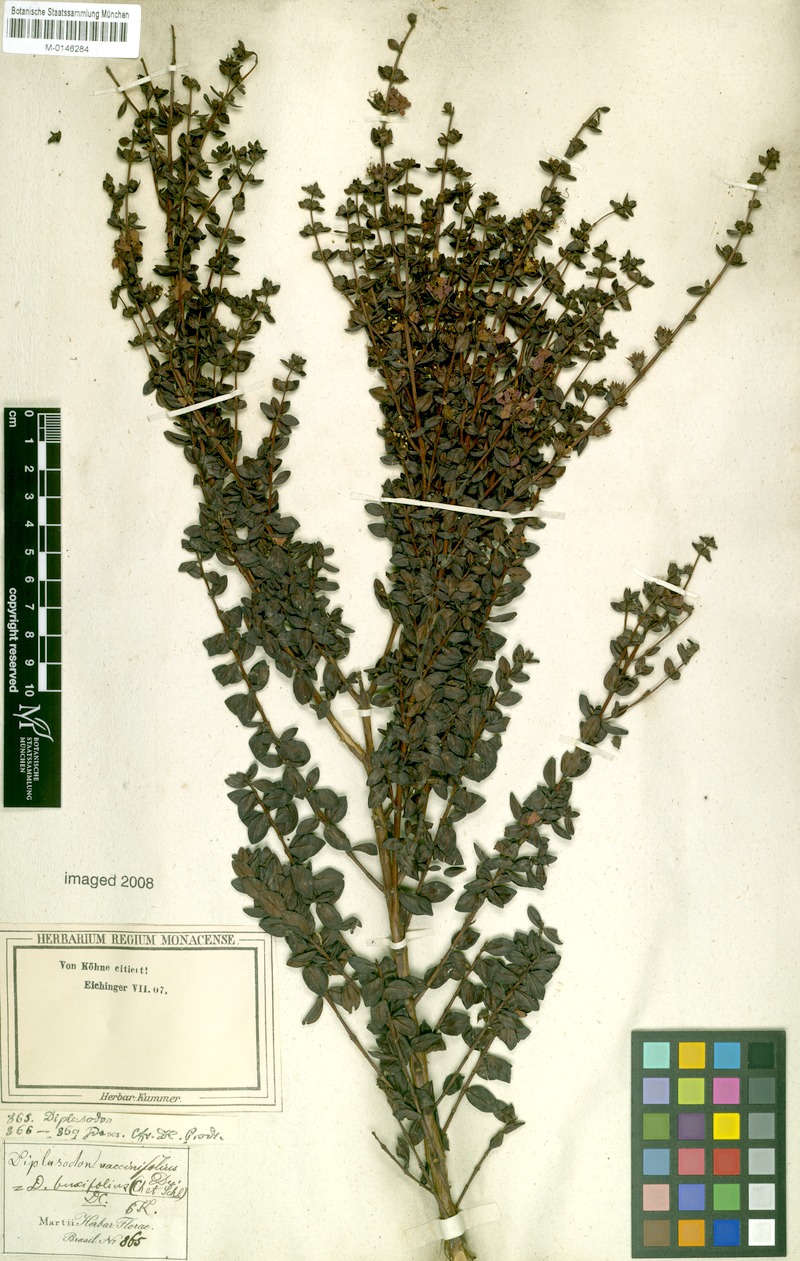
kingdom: Plantae
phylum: Tracheophyta
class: Magnoliopsida
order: Myrtales
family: Lythraceae
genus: Diplusodon
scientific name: Diplusodon buxifolius
